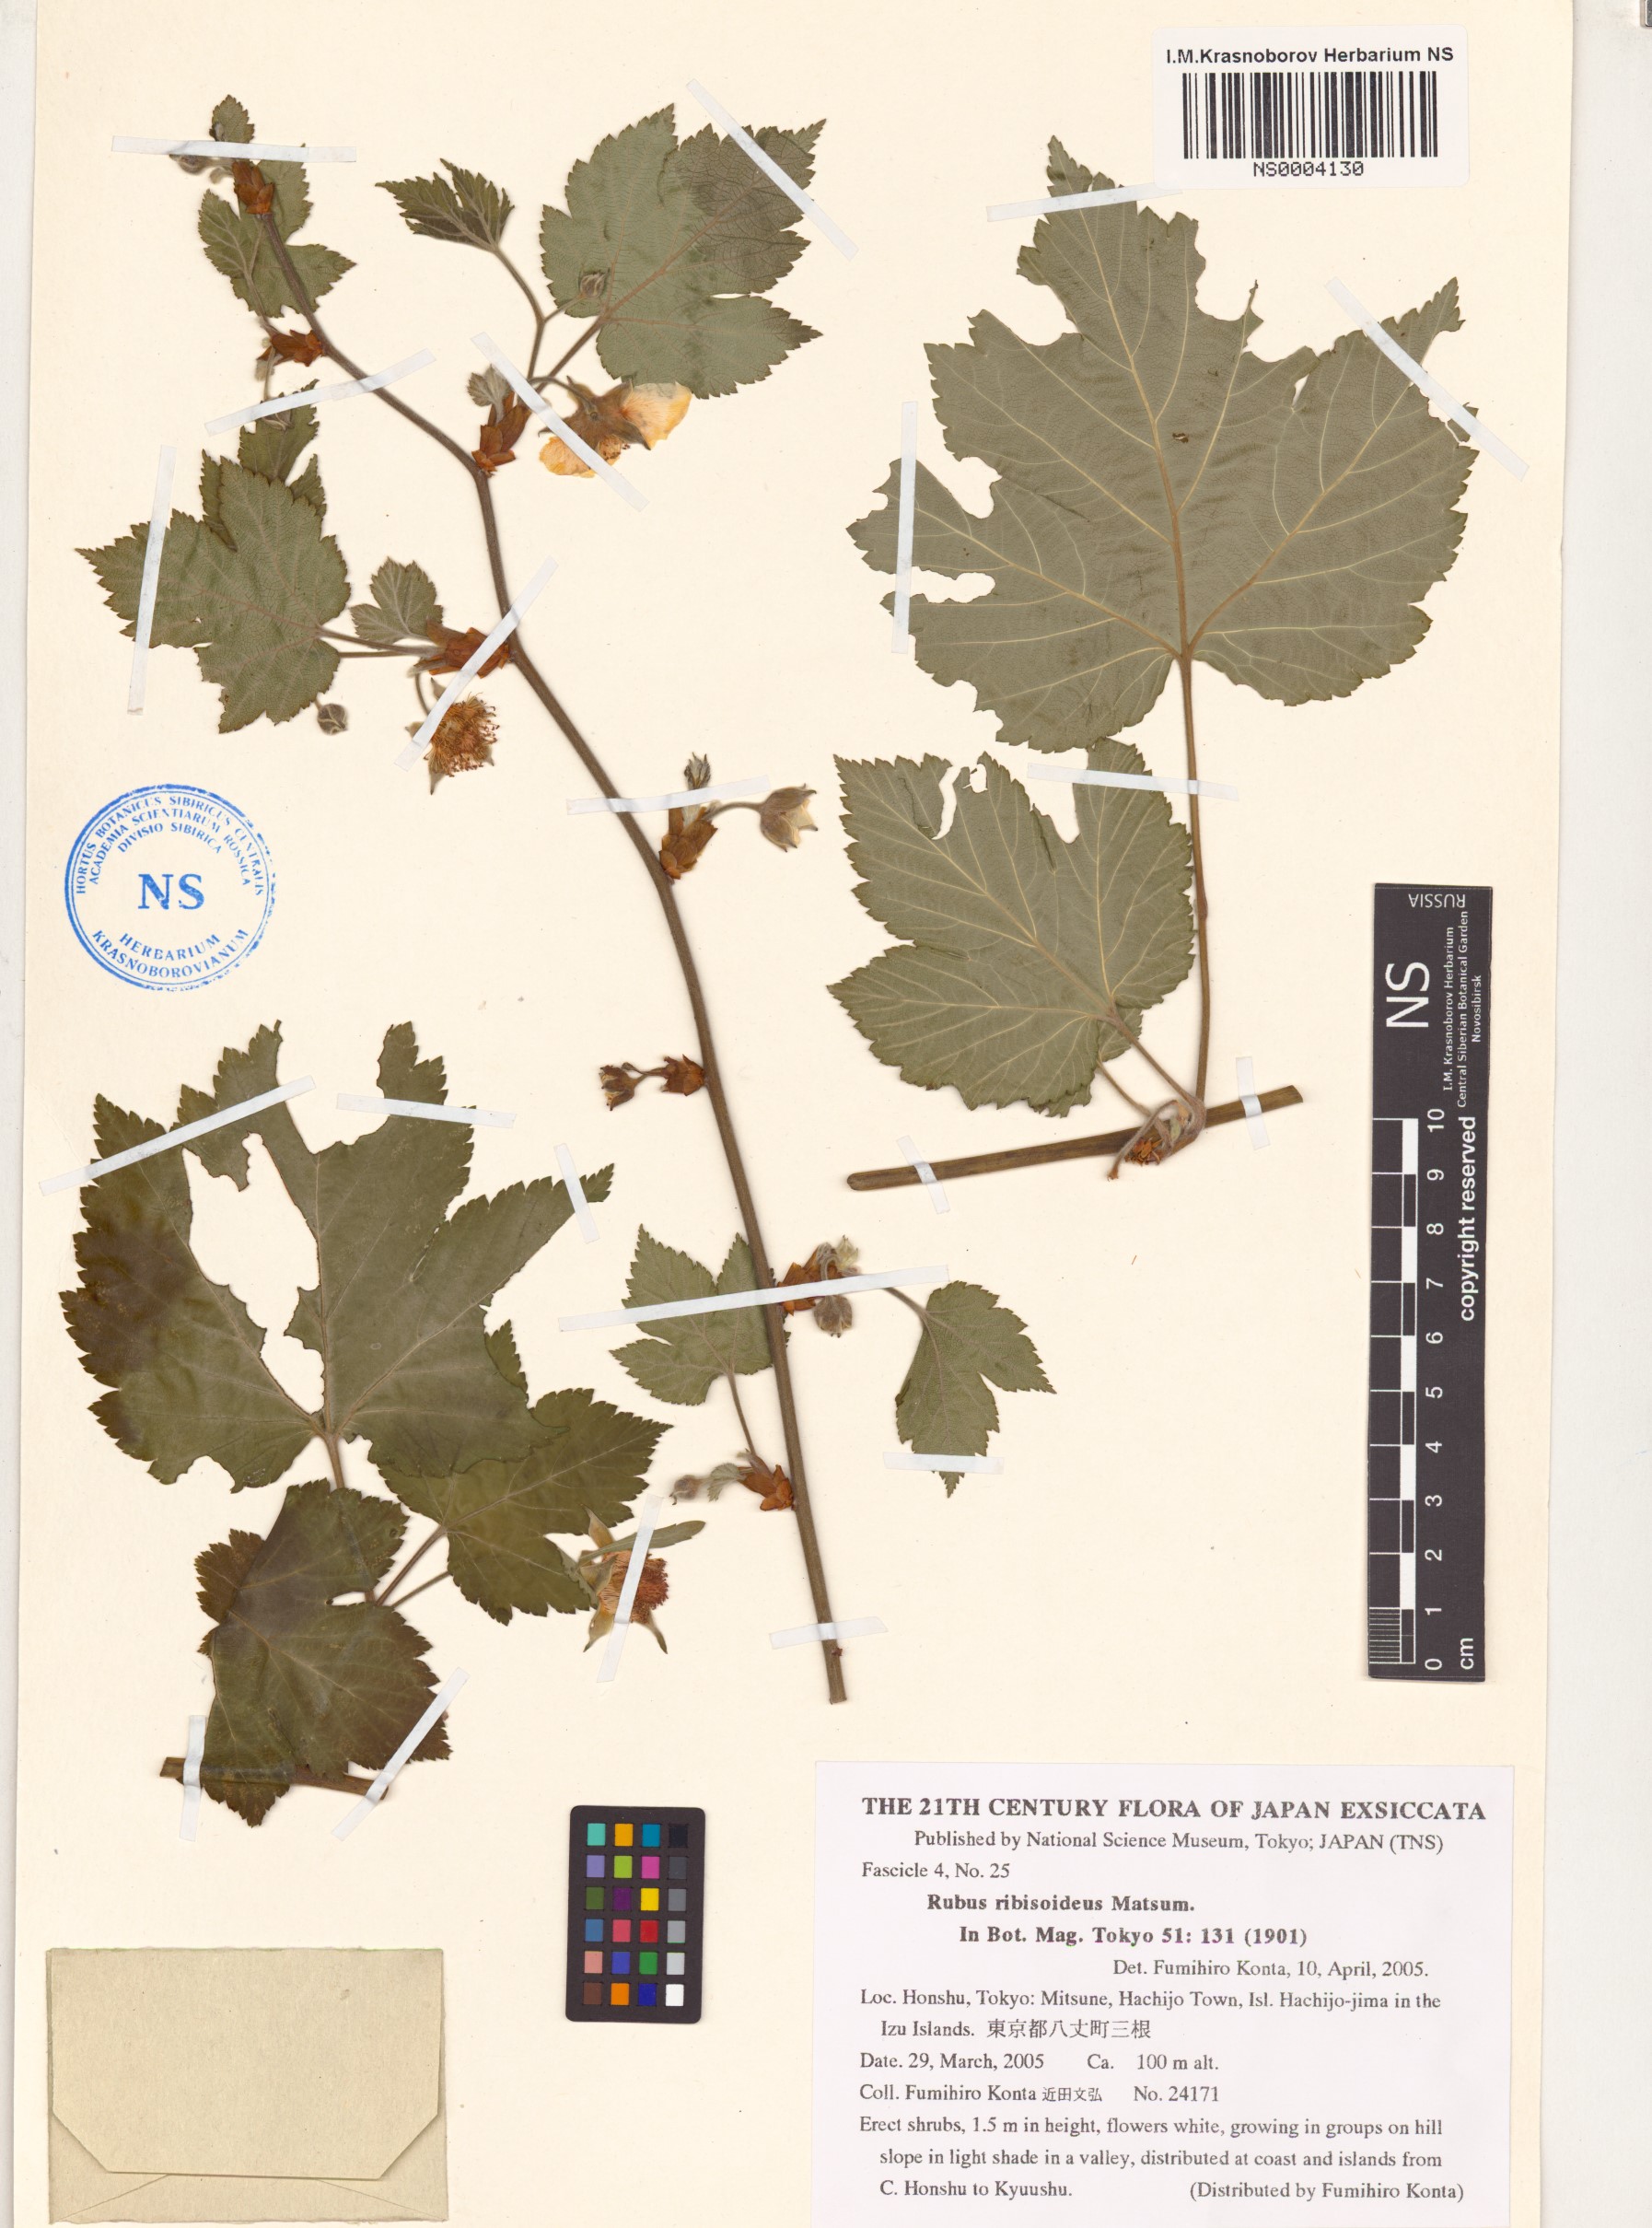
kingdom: Plantae
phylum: Tracheophyta
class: Magnoliopsida
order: Rosales
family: Rosaceae
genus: Rubus
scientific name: Rubus ribisoideus
